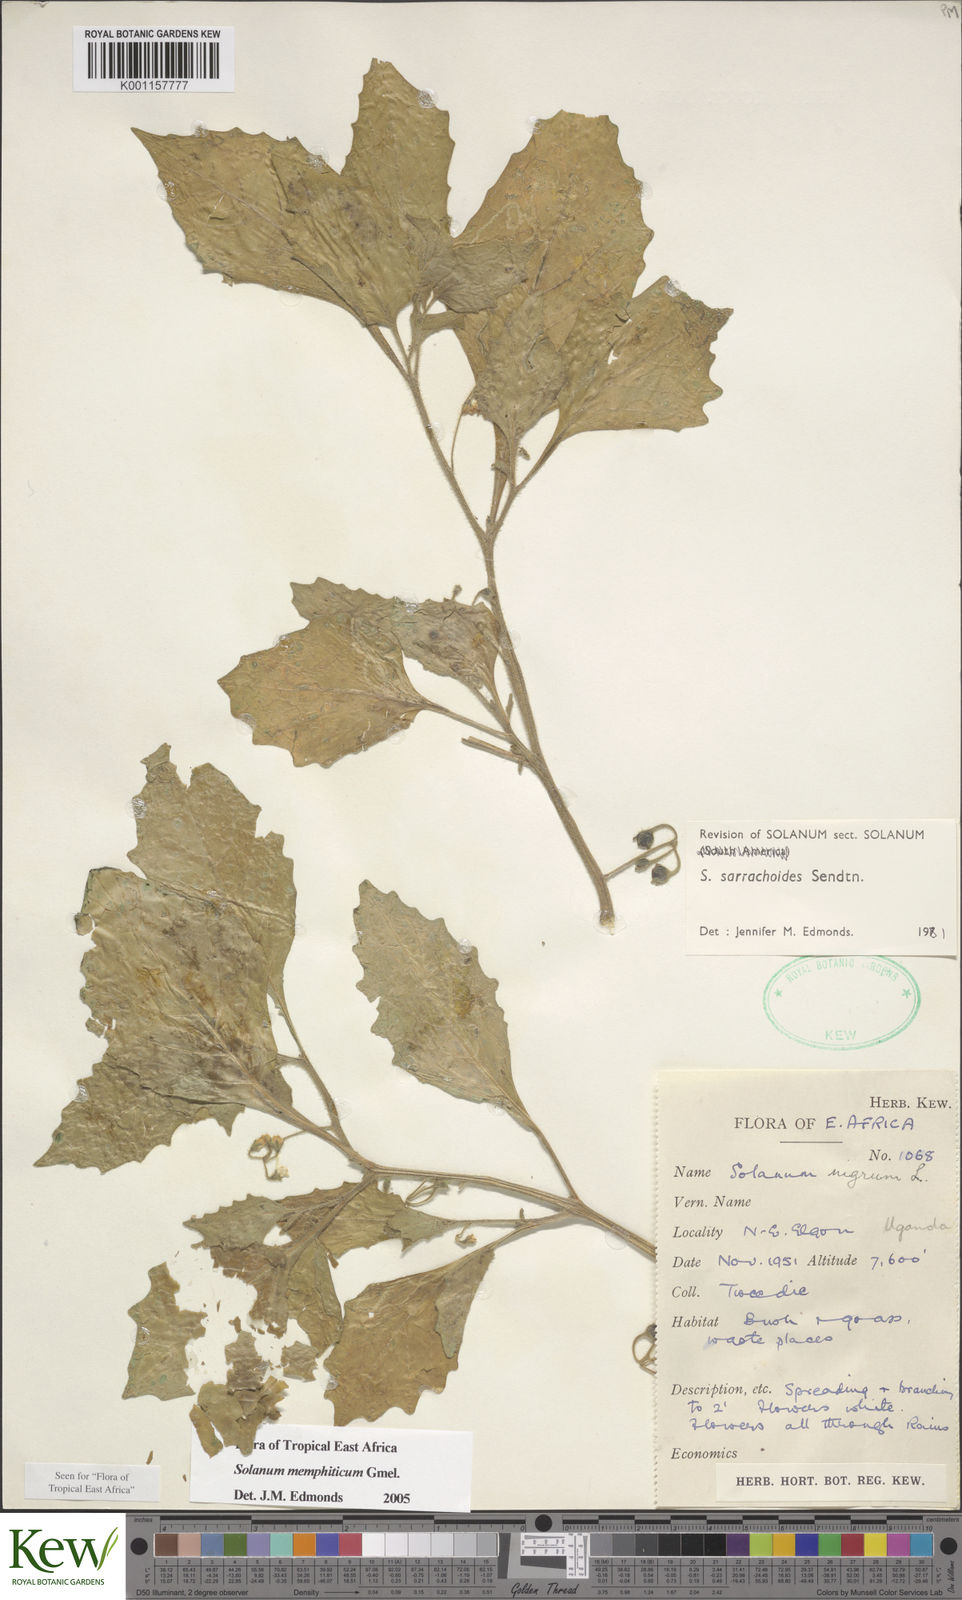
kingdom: Plantae
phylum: Tracheophyta
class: Magnoliopsida
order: Solanales
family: Solanaceae
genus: Solanum
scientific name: Solanum memphiticum
